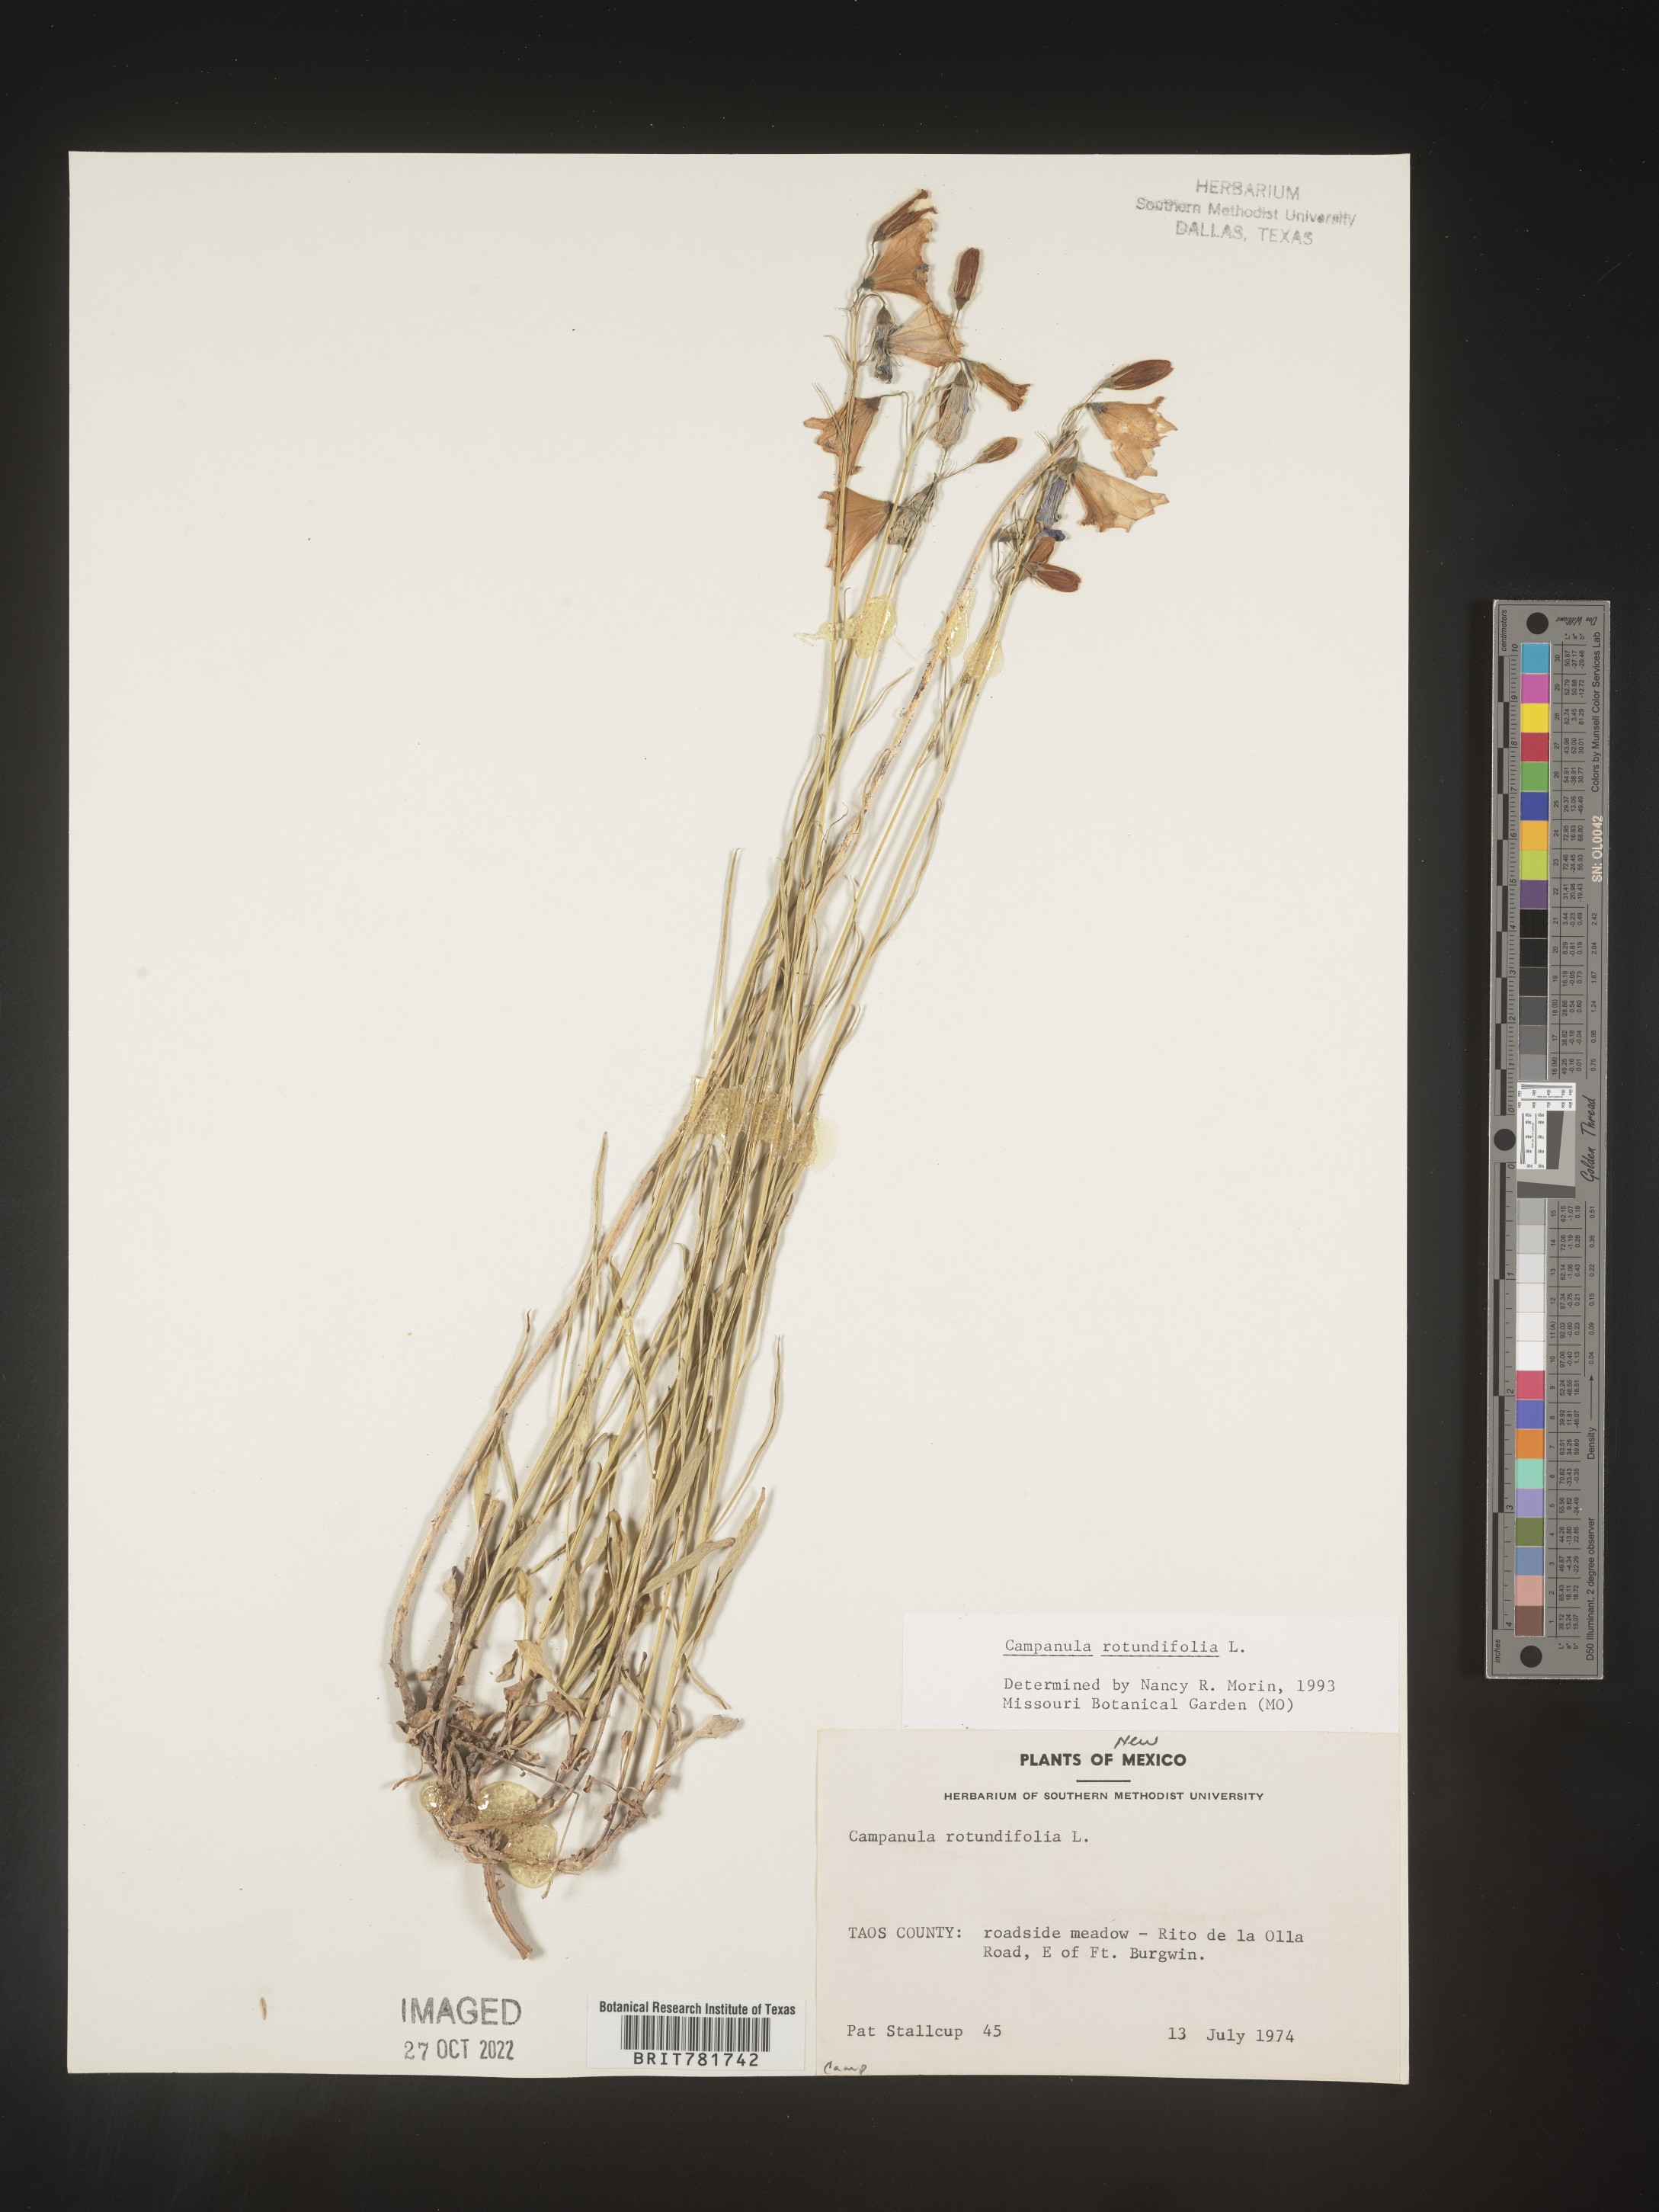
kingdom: Plantae
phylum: Tracheophyta
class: Magnoliopsida
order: Asterales
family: Campanulaceae
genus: Campanula
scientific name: Campanula rotundifolia
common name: Harebell
